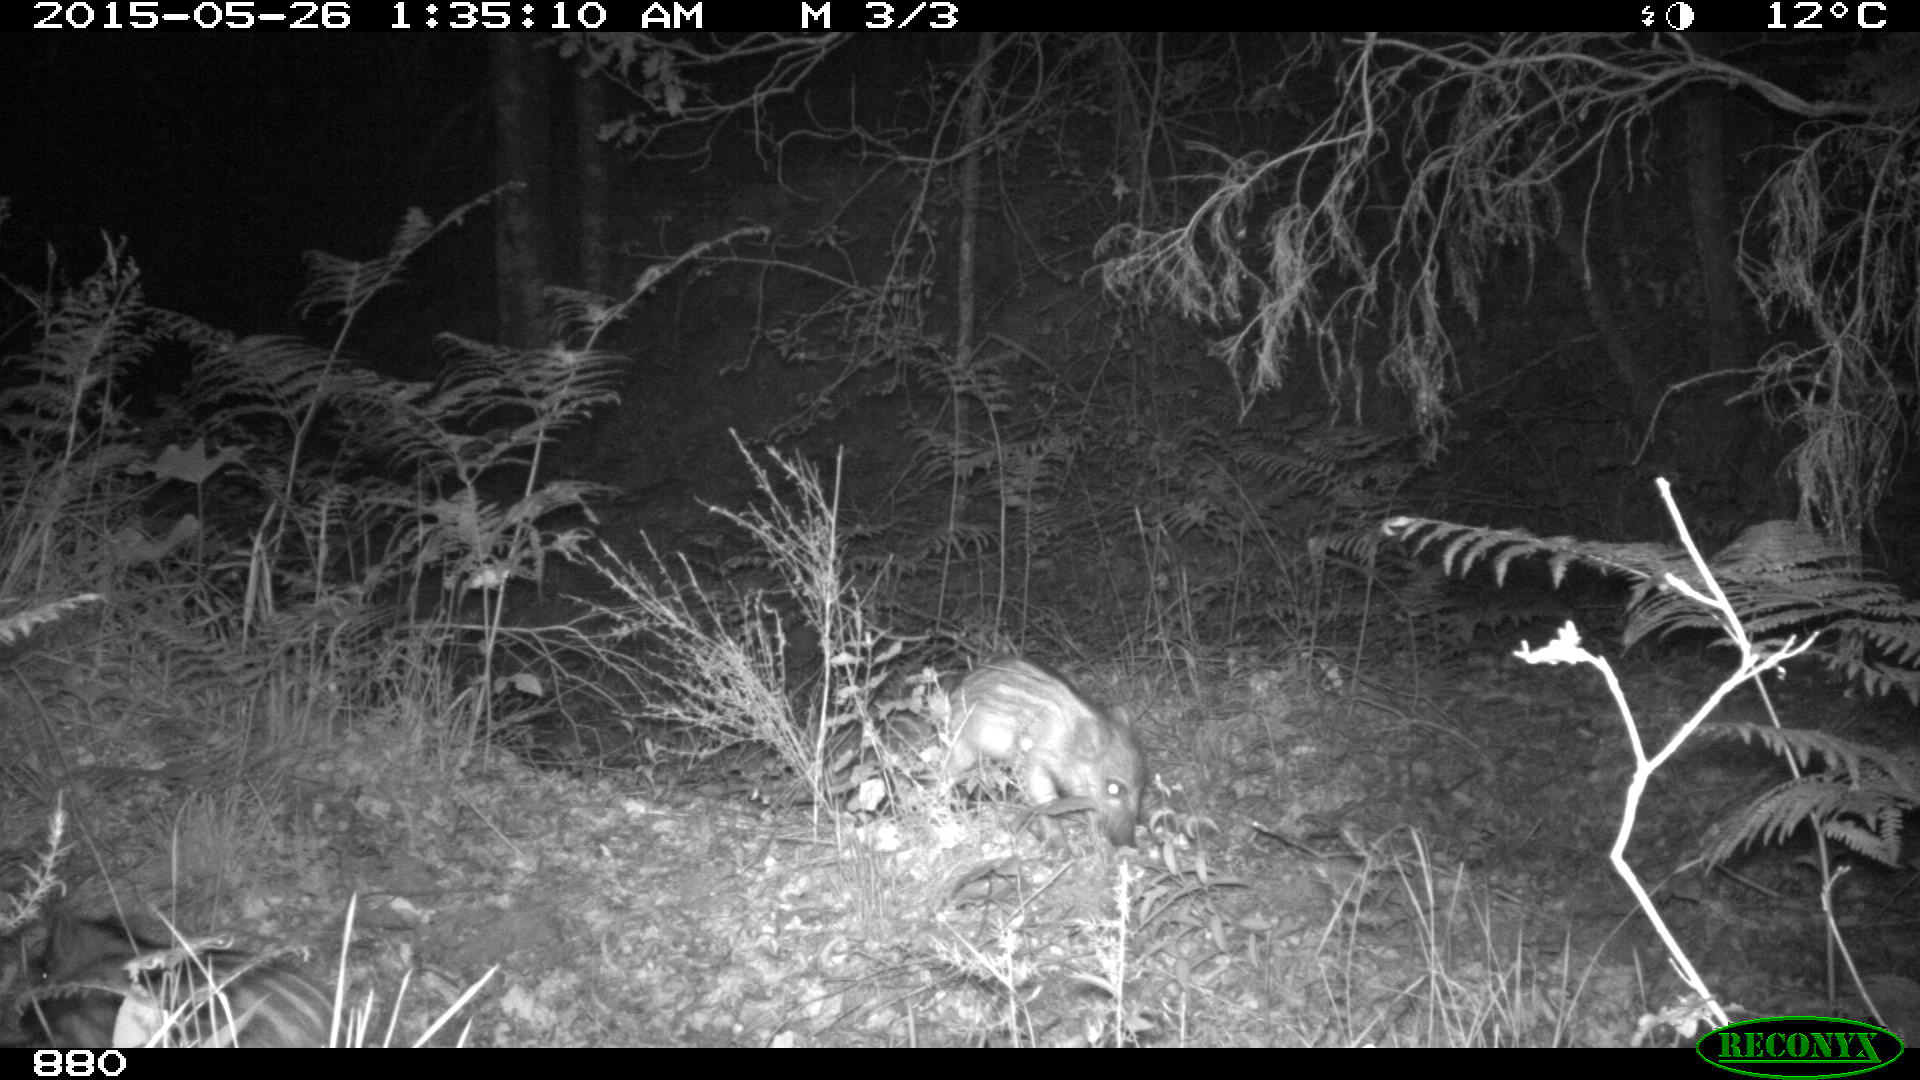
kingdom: Animalia
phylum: Chordata
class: Mammalia
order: Artiodactyla
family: Suidae
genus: Sus
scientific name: Sus scrofa
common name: Wild boar
